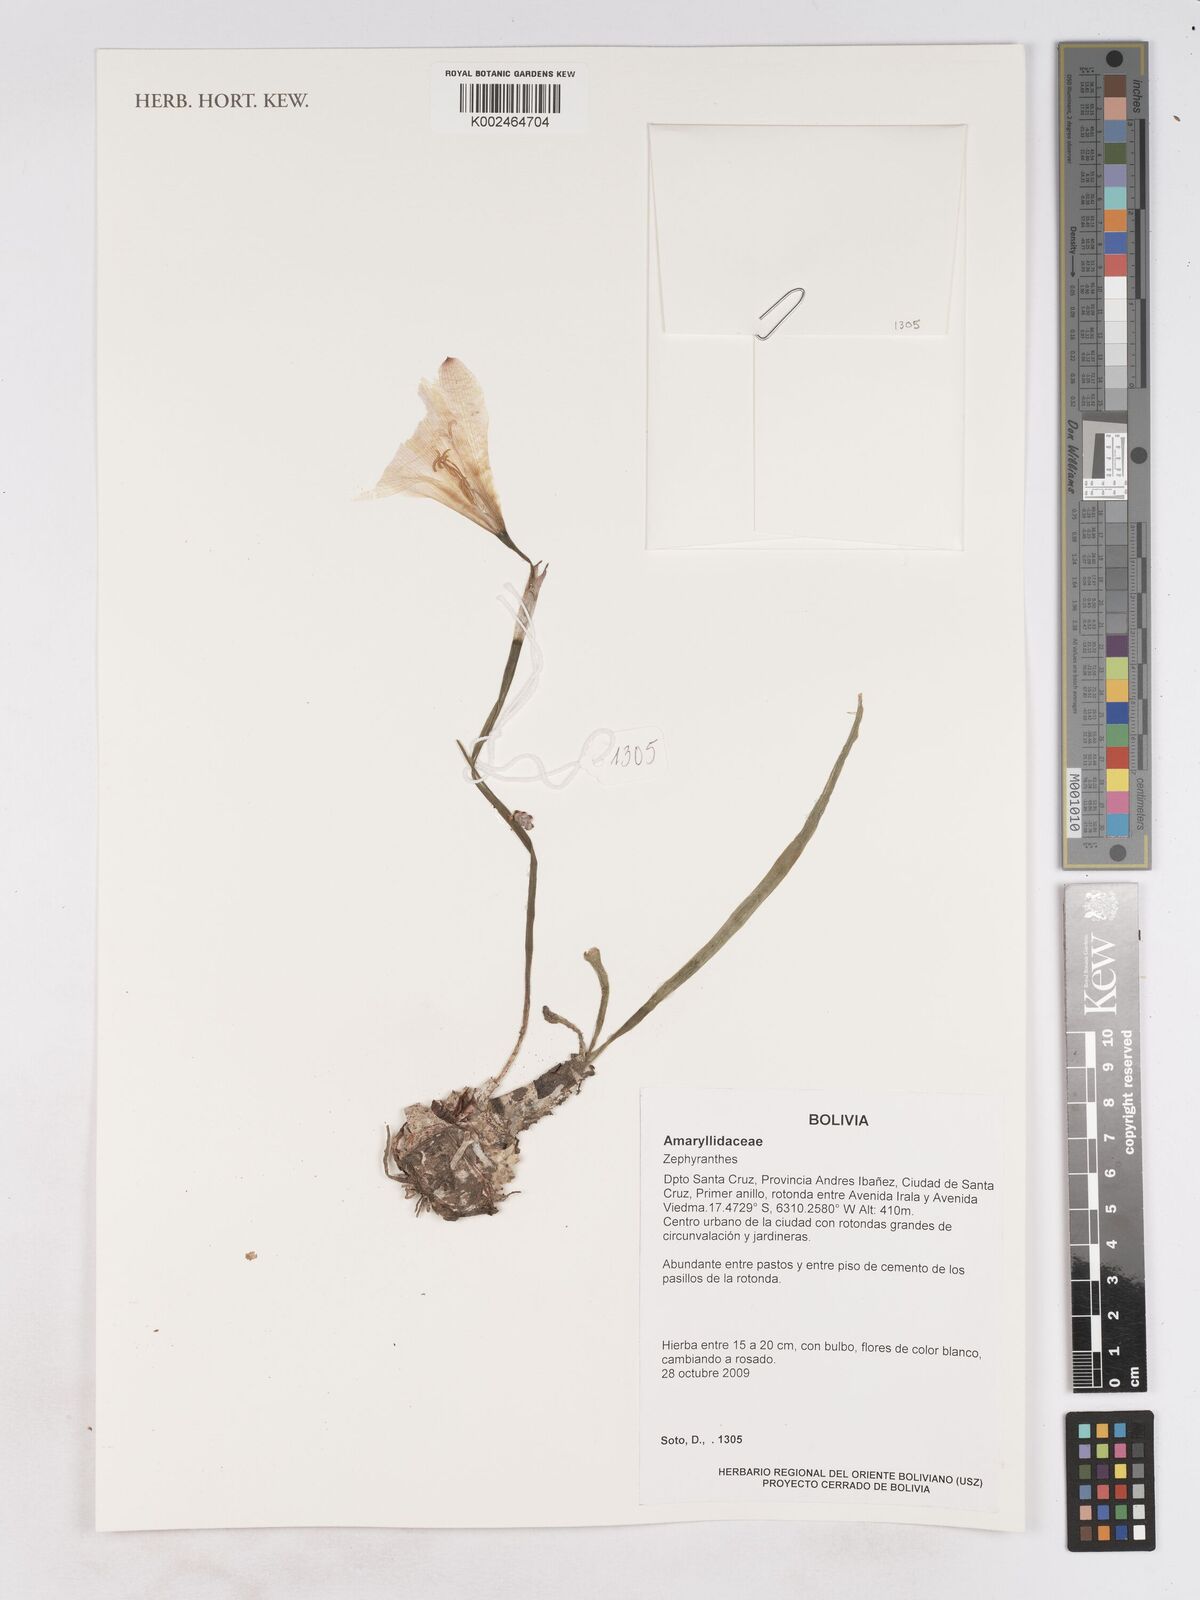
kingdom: Plantae
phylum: Tracheophyta
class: Liliopsida
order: Asparagales
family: Amaryllidaceae
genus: Zephyranthes
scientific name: Zephyranthes
